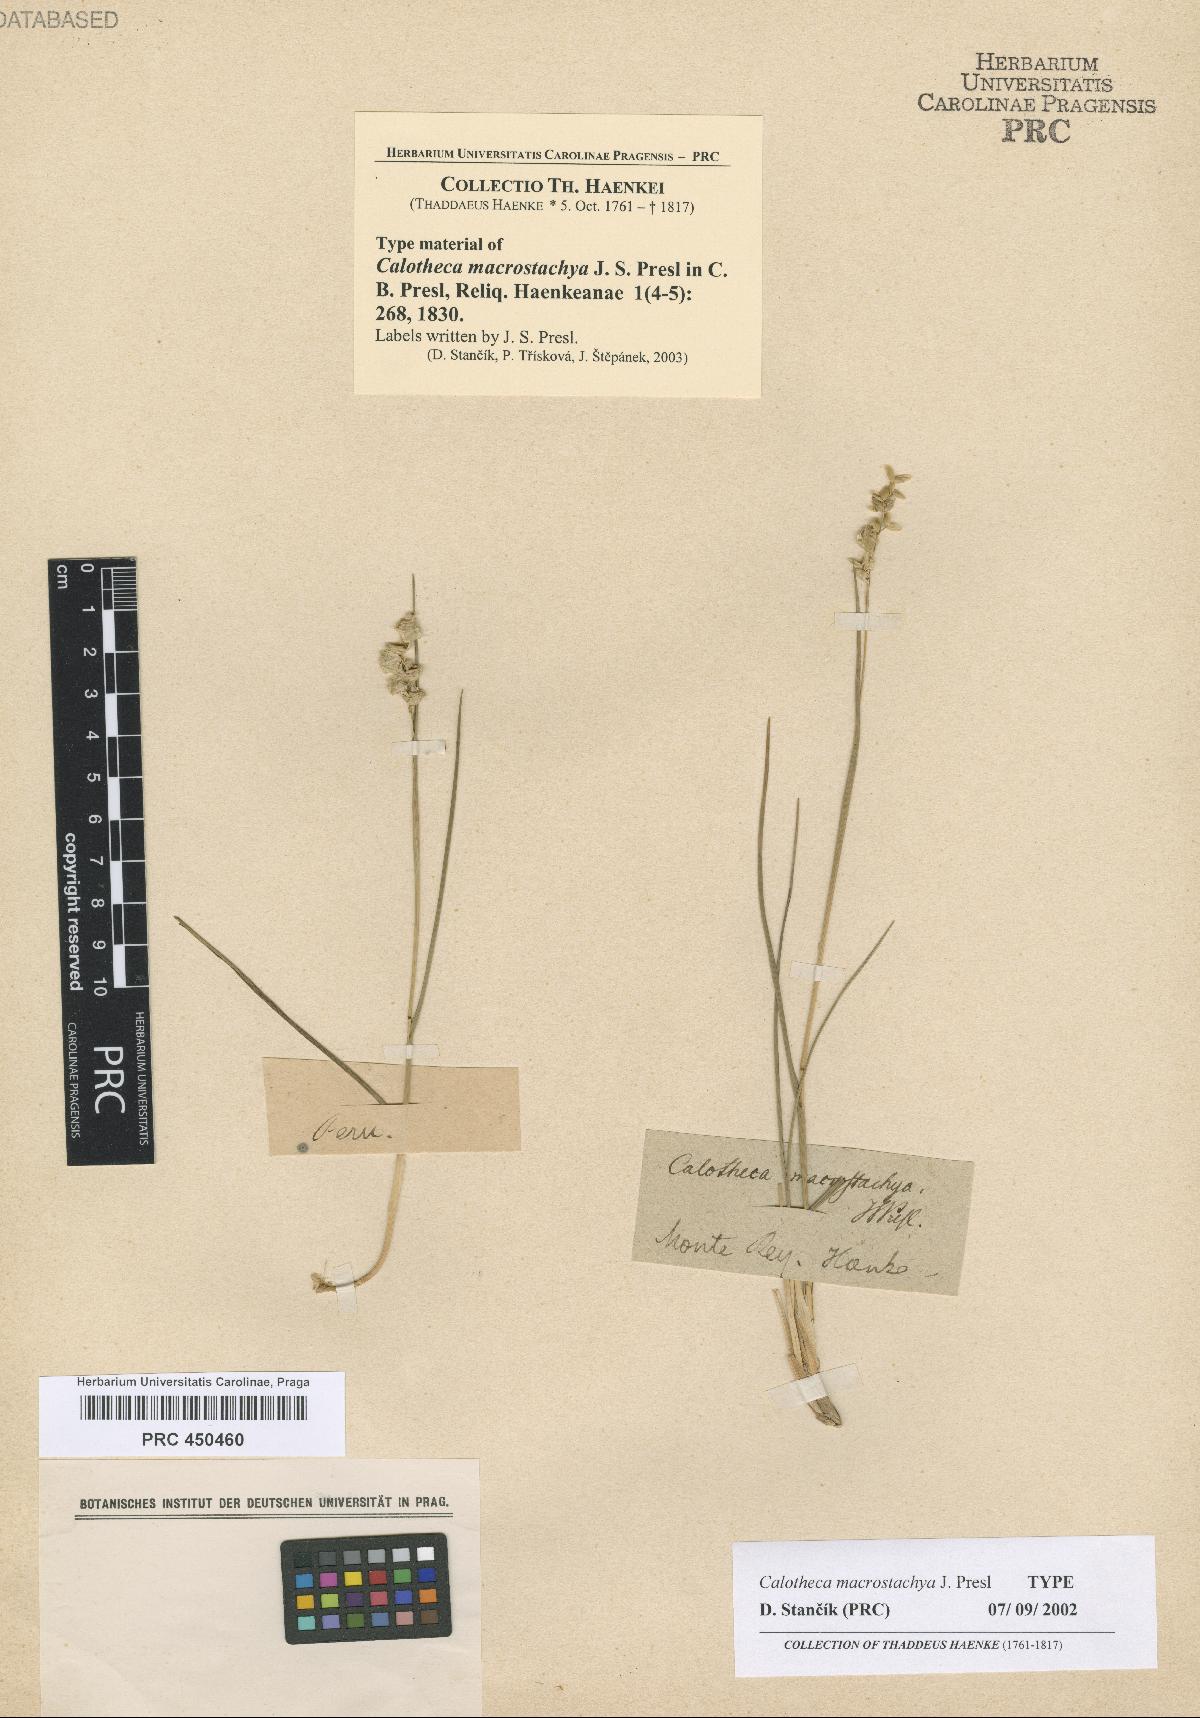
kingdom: Plantae
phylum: Tracheophyta
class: Liliopsida
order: Poales
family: Poaceae
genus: Chascolytrum
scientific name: Chascolytrum erectum
